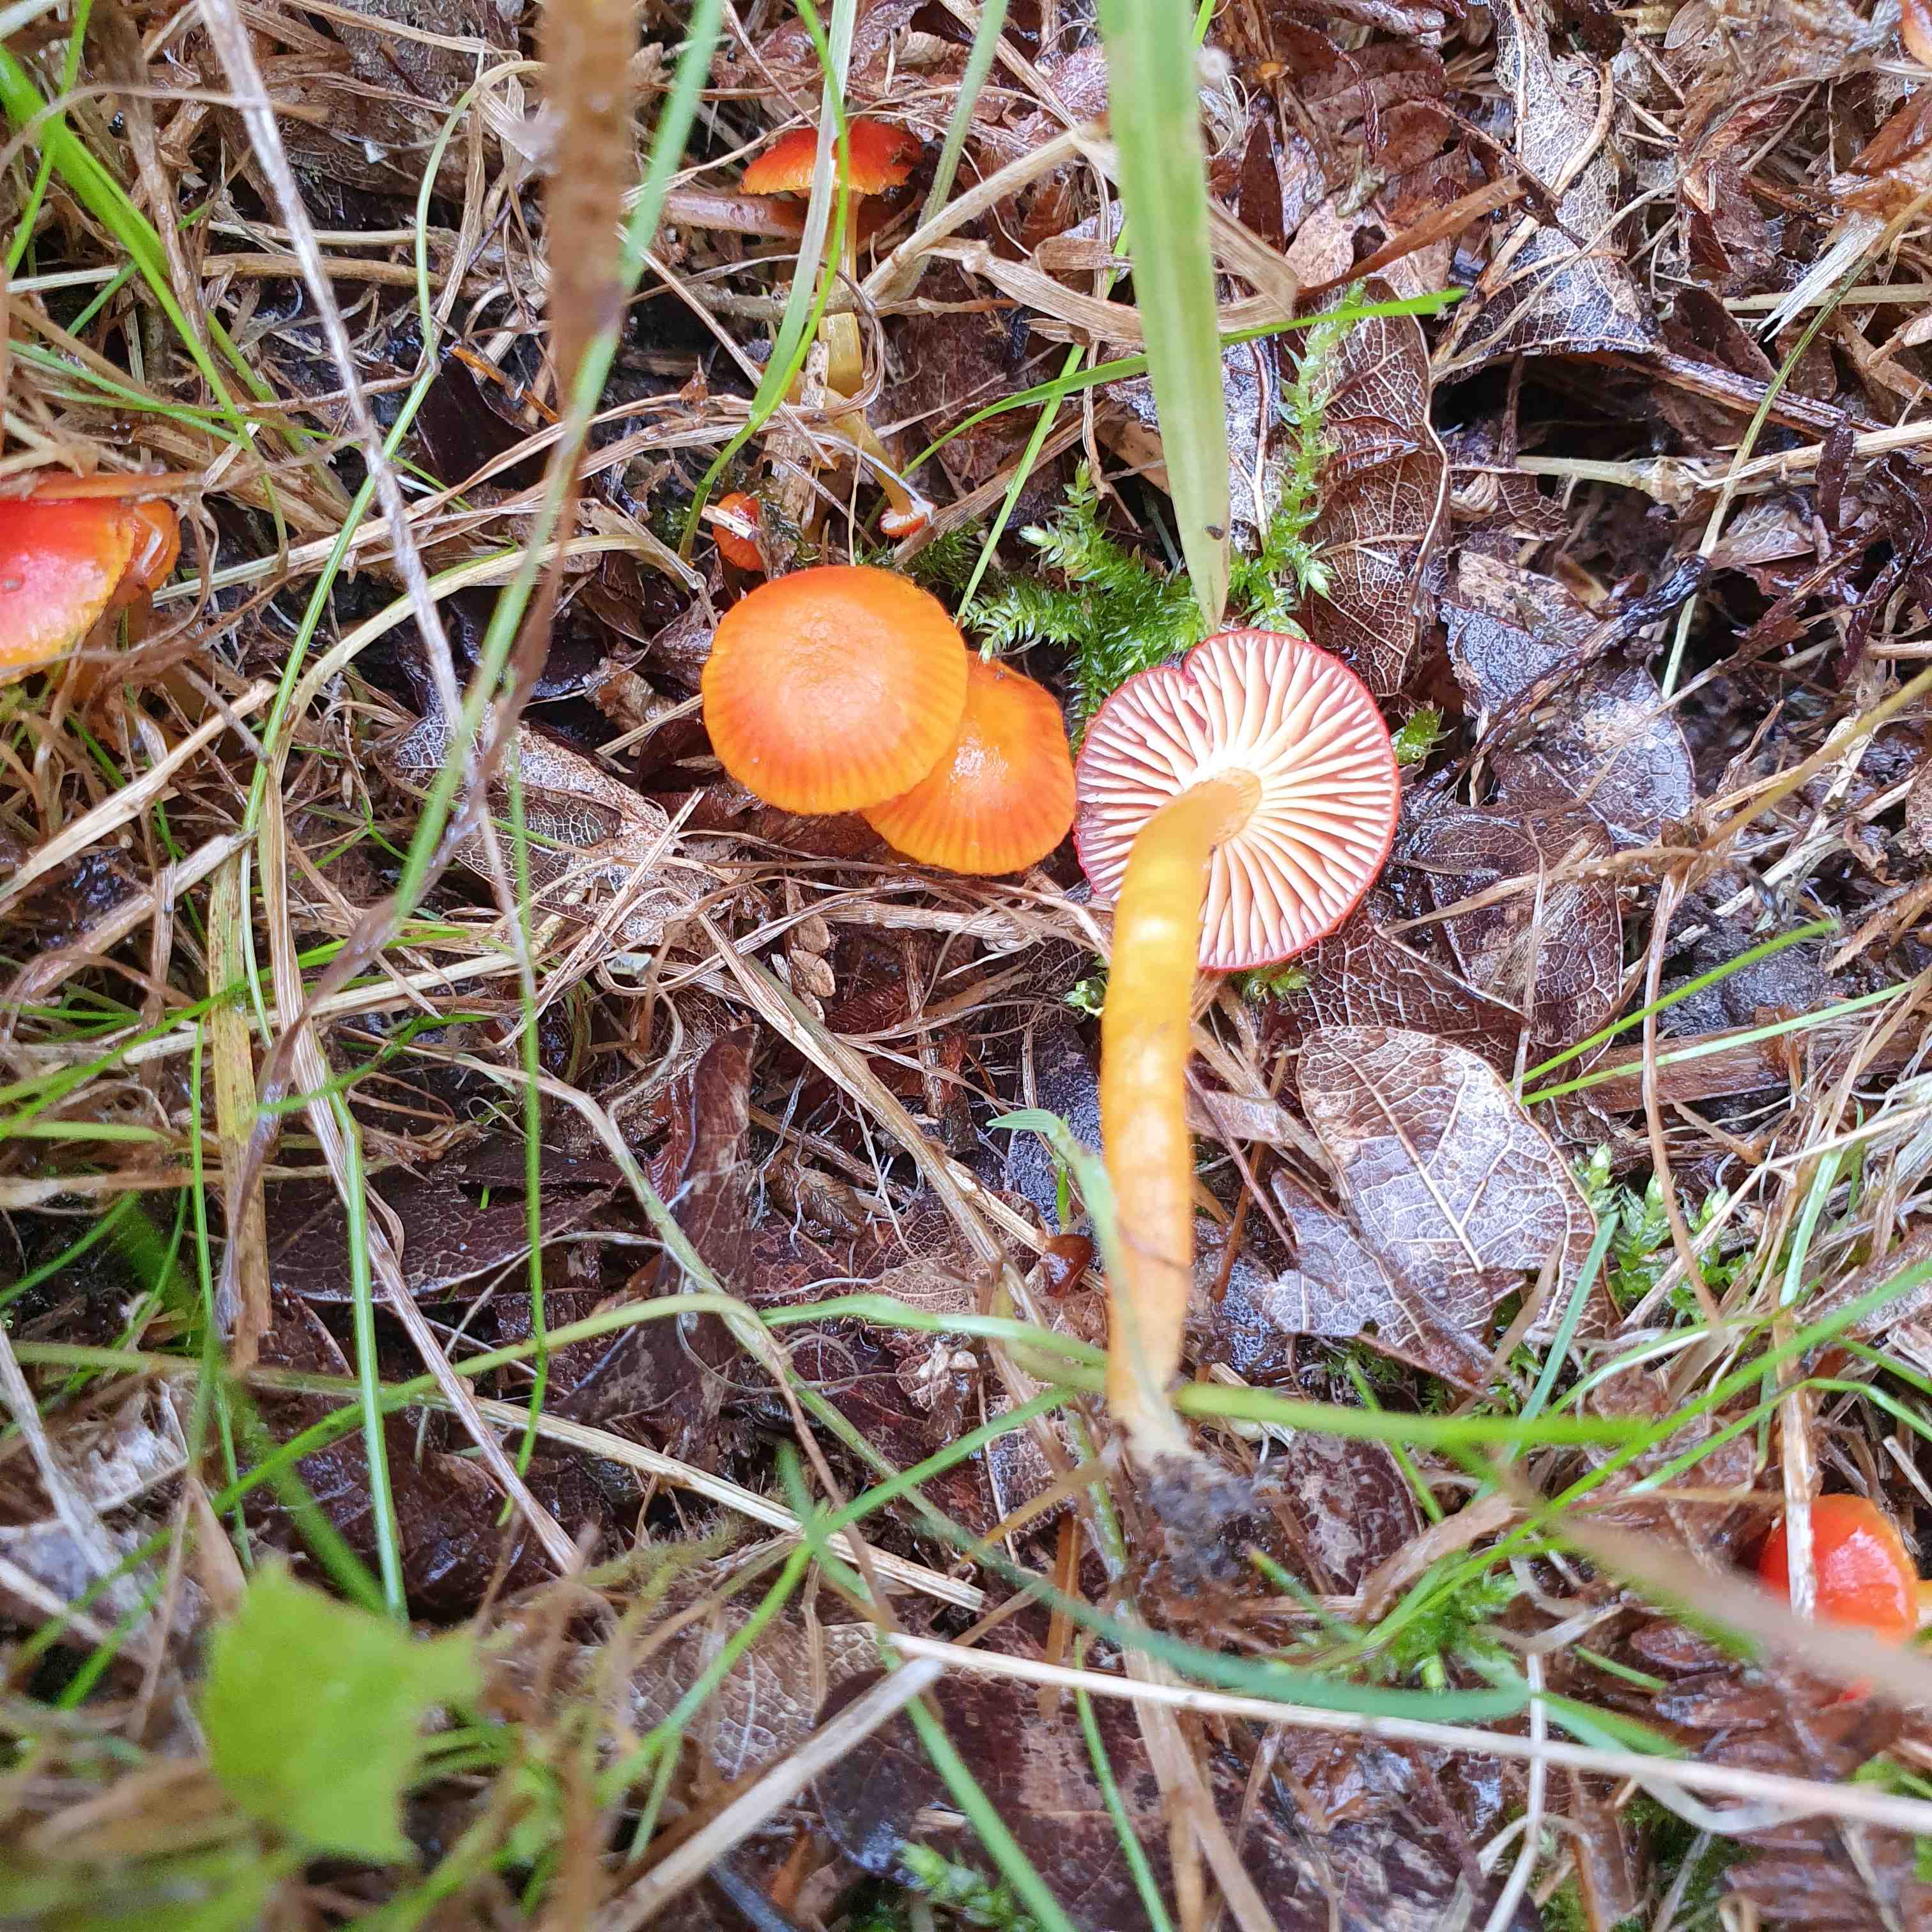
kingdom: Fungi
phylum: Basidiomycota
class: Agaricomycetes
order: Agaricales
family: Hygrophoraceae
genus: Hygrocybe
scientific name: Hygrocybe ceracea
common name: voksgul vokshat
